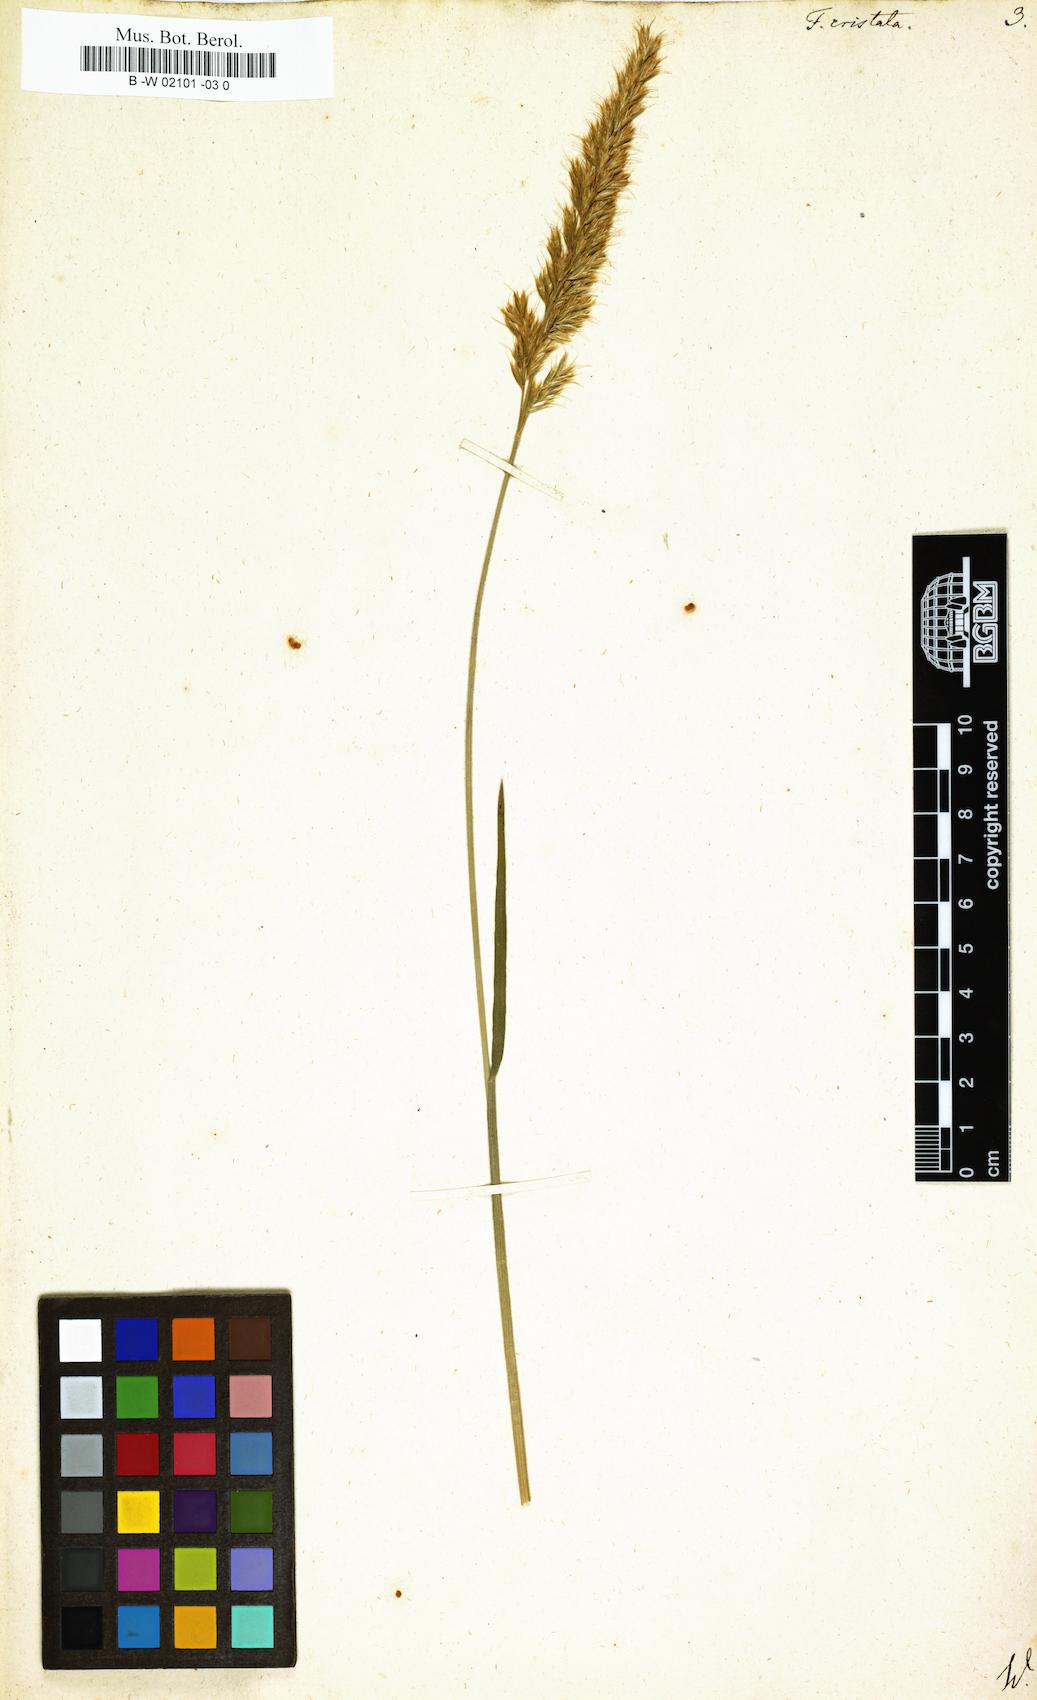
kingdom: Plantae
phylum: Tracheophyta
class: Liliopsida
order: Poales
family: Poaceae
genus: Rostraria
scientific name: Rostraria cristata
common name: Mediterranean hair-grass
